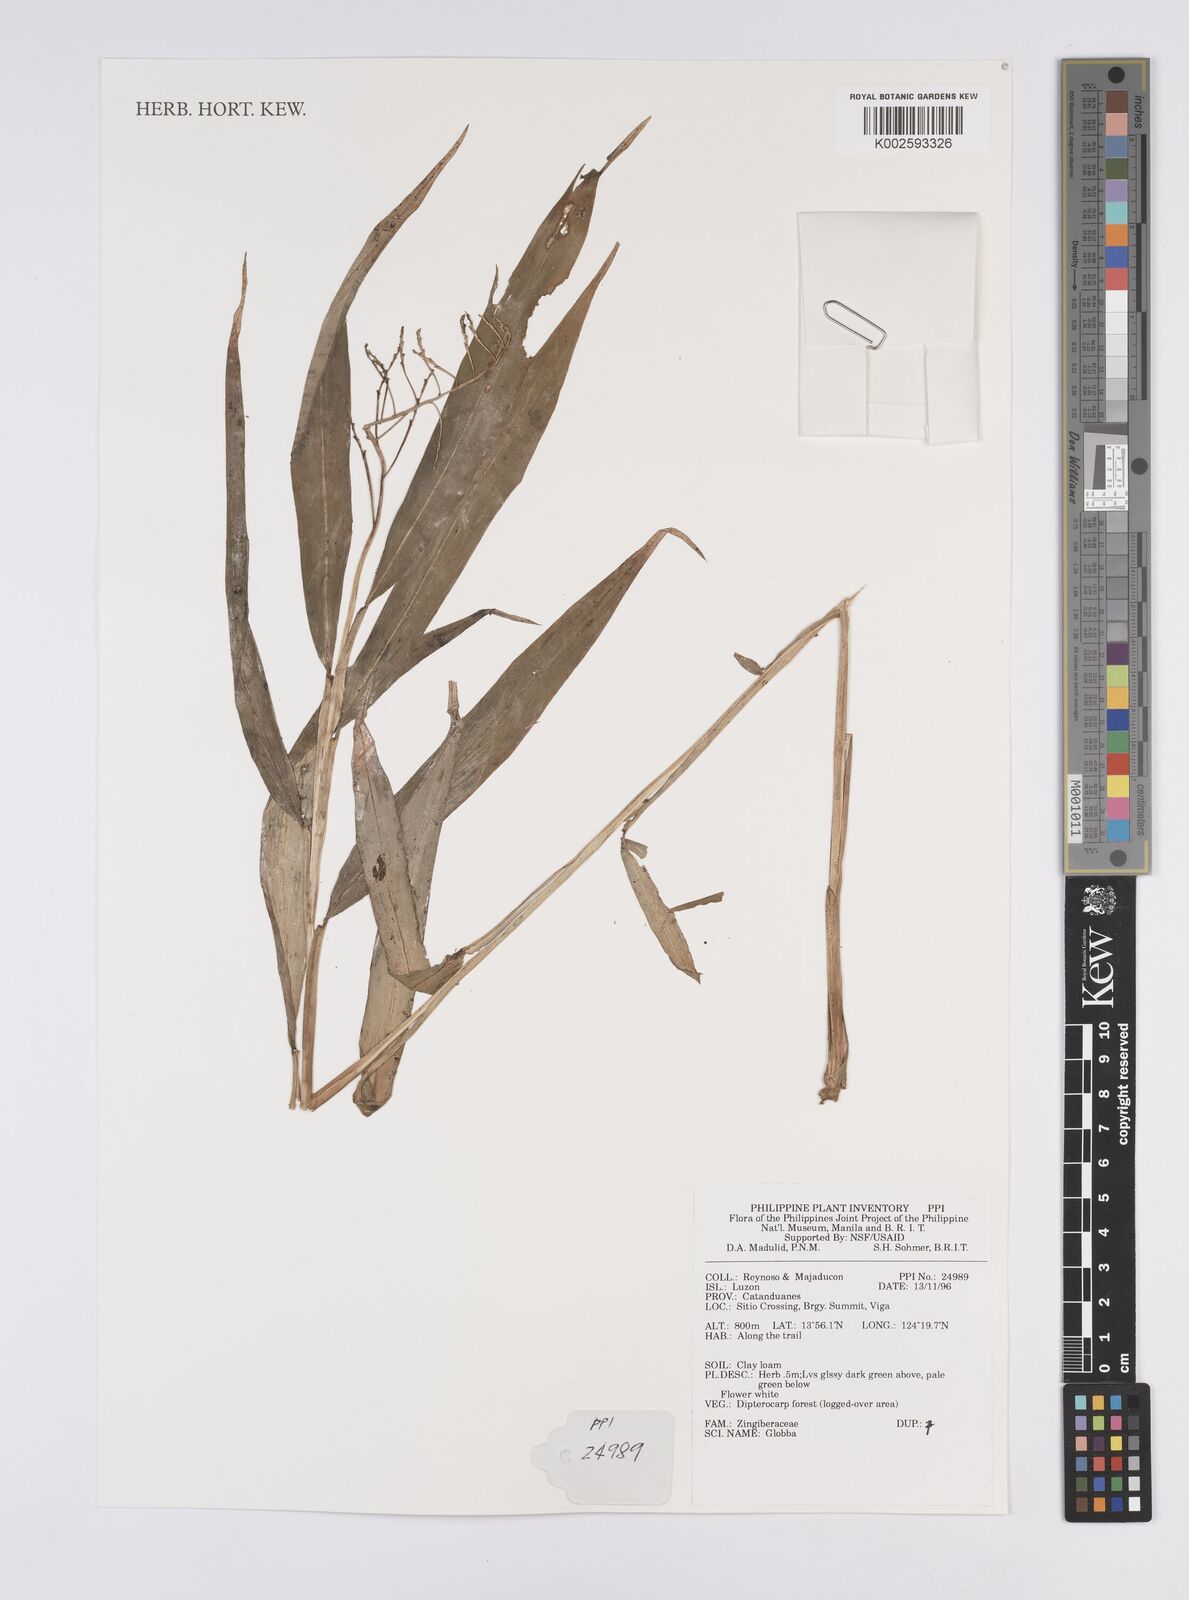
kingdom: Plantae
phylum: Tracheophyta
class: Liliopsida
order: Zingiberales
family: Zingiberaceae
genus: Globba
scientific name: Globba
